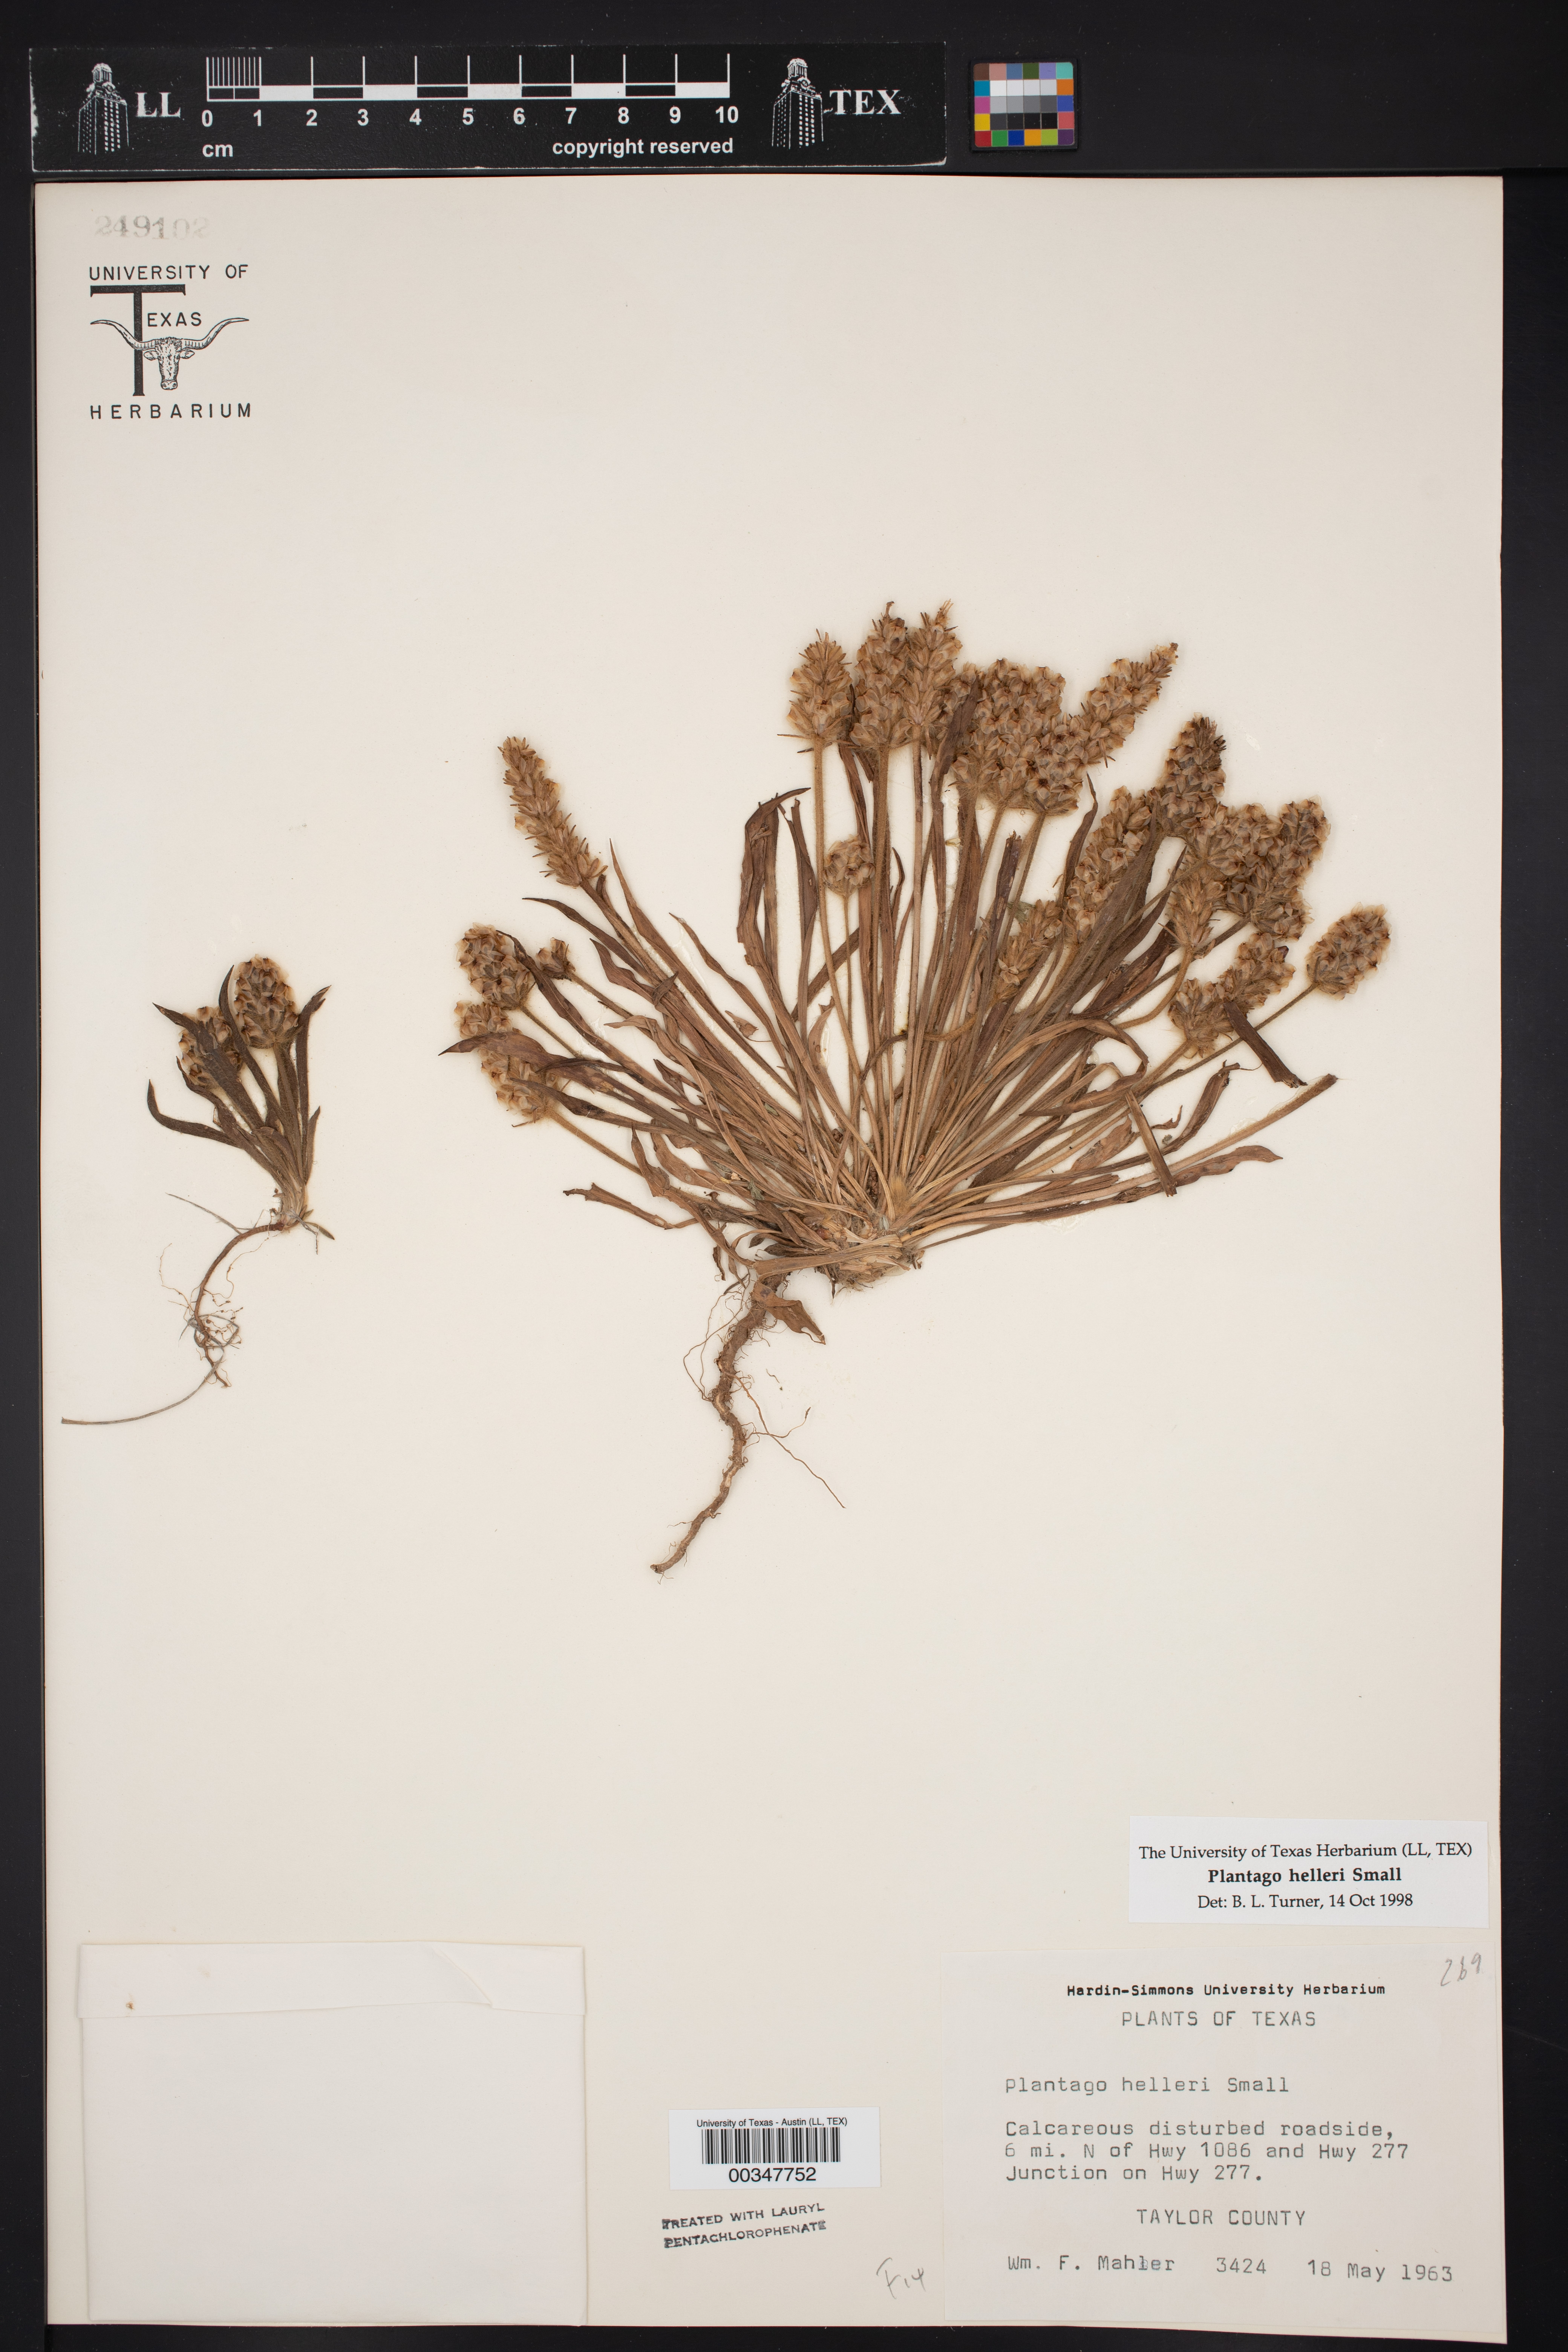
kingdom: Plantae
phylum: Tracheophyta
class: Magnoliopsida
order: Lamiales
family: Plantaginaceae
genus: Plantago
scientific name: Plantago helleri
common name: Heller's plantain
